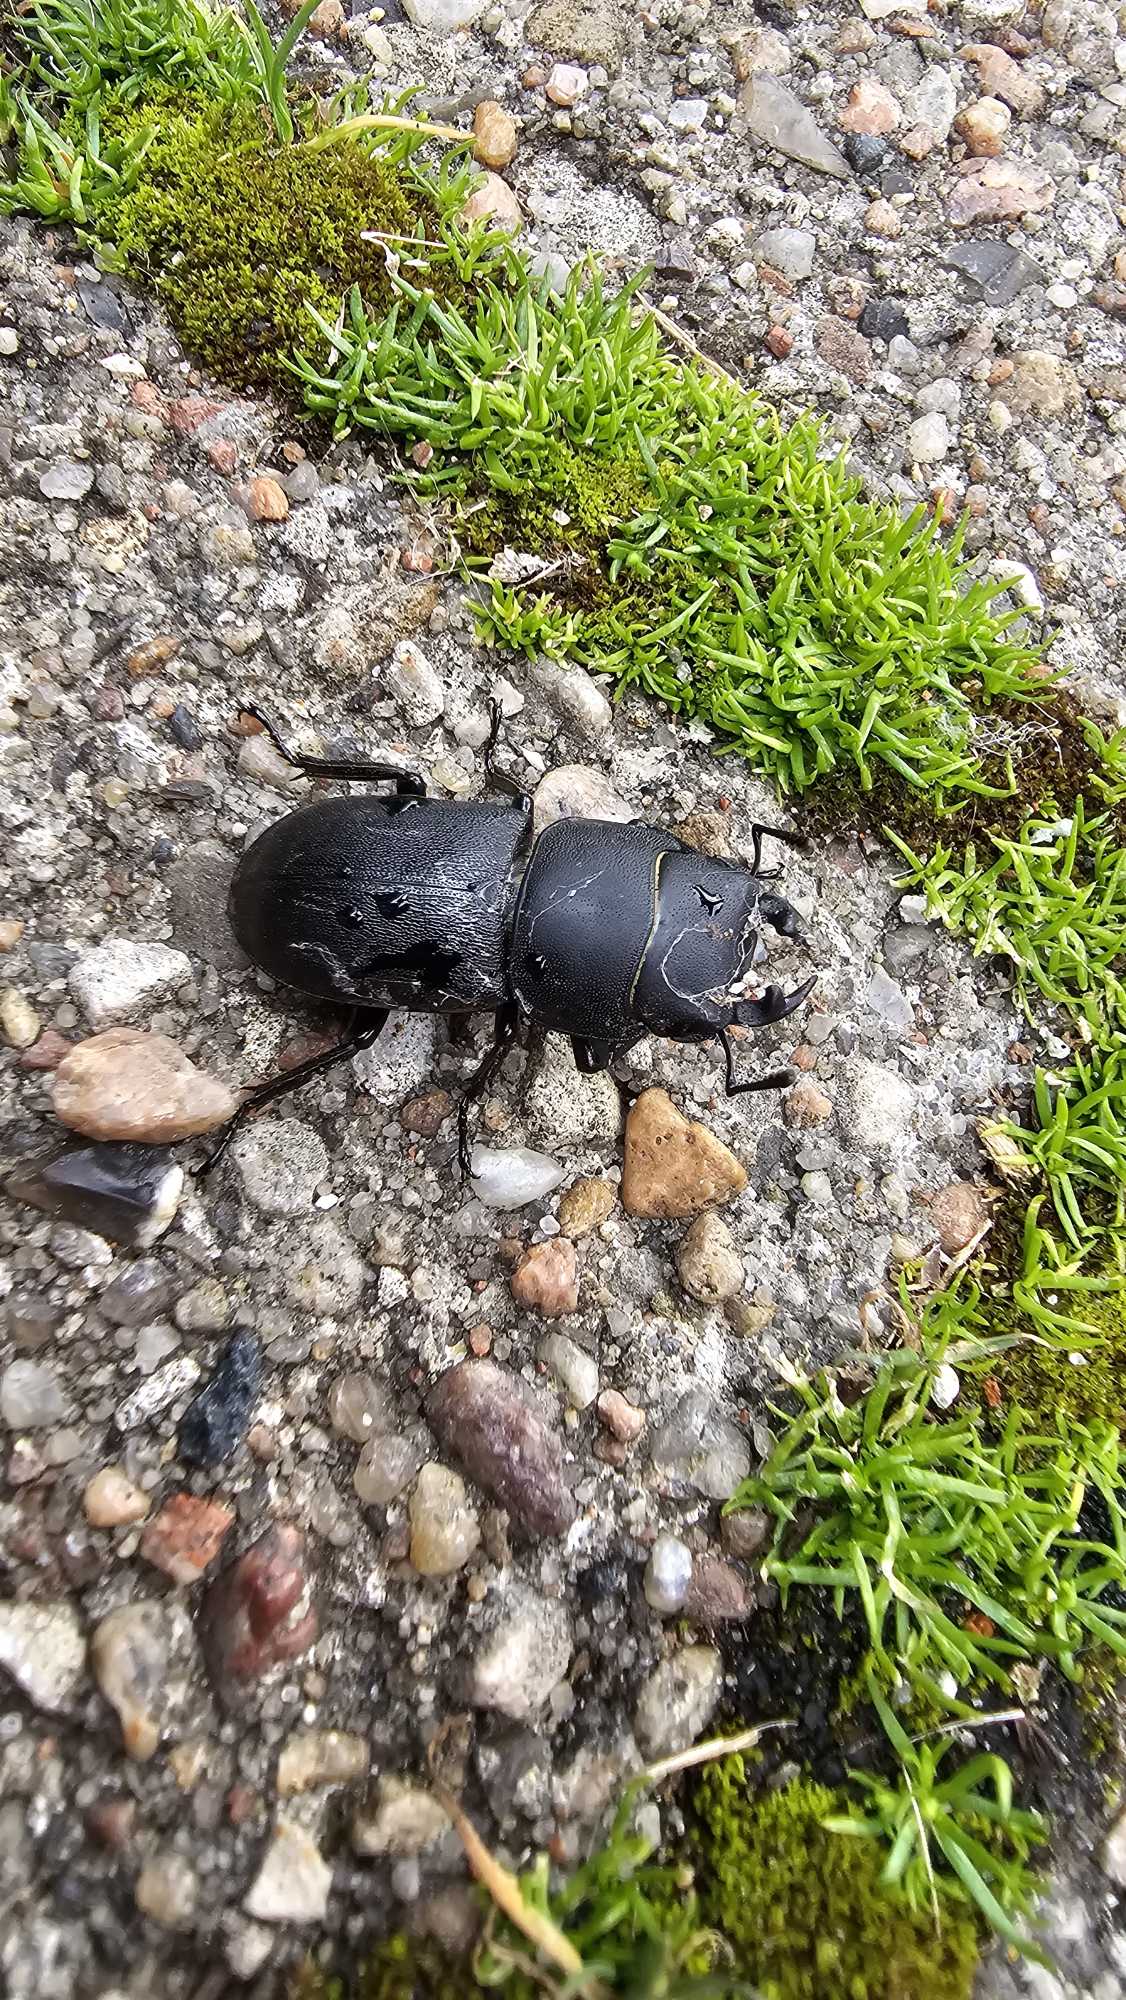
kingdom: Animalia
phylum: Arthropoda
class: Insecta
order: Coleoptera
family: Lucanidae
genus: Dorcus
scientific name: Dorcus parallelipipedus
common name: Bøghjort
